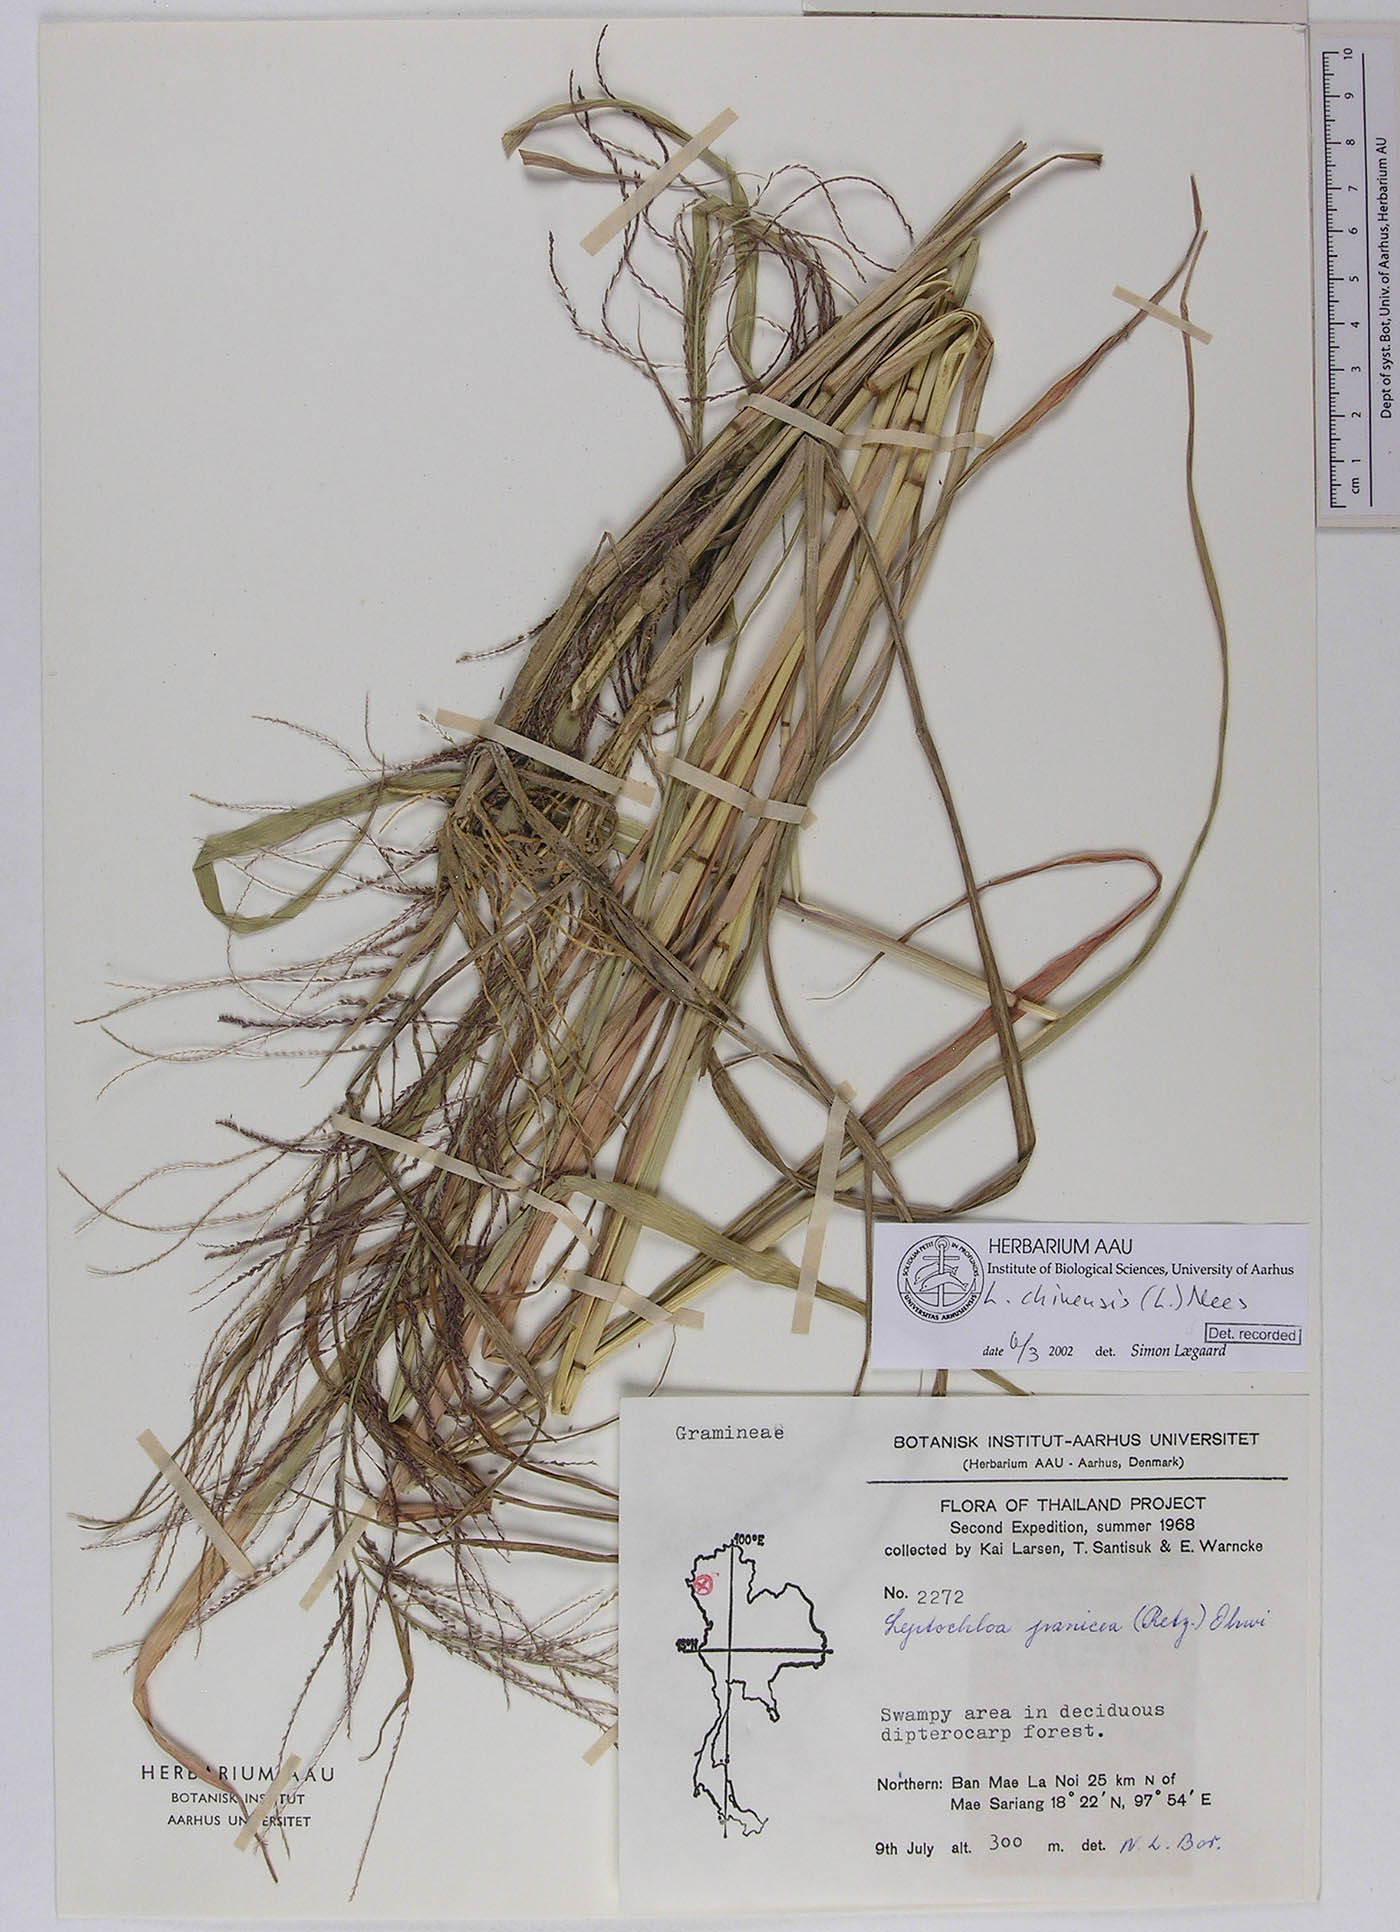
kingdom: Plantae
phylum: Tracheophyta
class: Liliopsida
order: Poales
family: Poaceae
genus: Leptochloa
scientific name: Leptochloa chinensis
